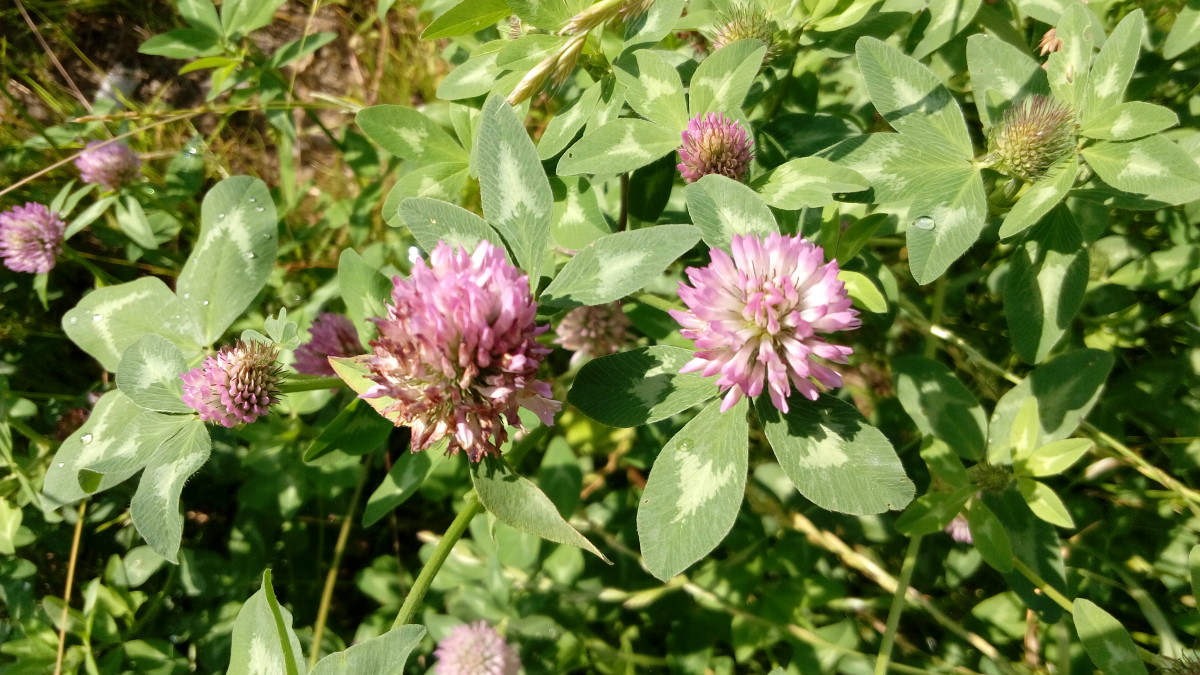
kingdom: Plantae
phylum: Tracheophyta
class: Magnoliopsida
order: Fabales
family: Fabaceae
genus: Trifolium
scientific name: Trifolium pratense
